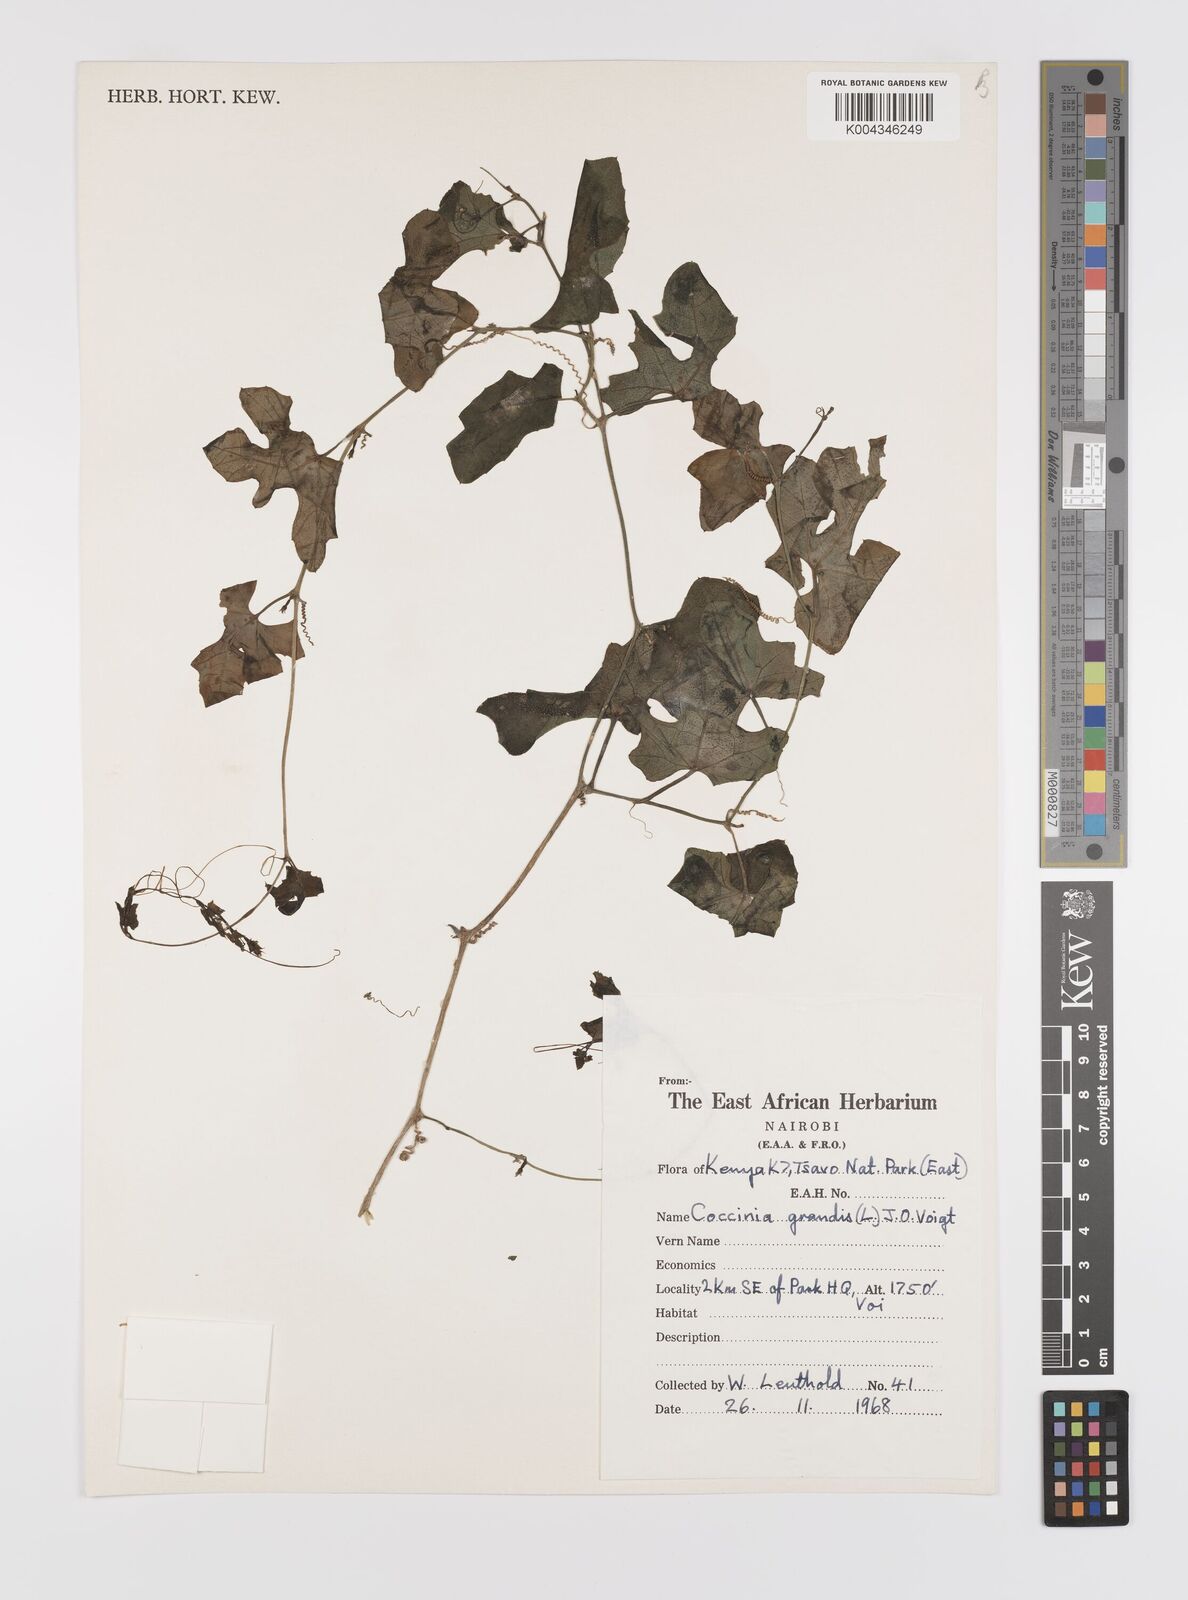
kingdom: Plantae
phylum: Tracheophyta
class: Magnoliopsida
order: Cucurbitales
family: Cucurbitaceae
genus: Coccinia
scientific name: Coccinia grandis
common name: Ivy gourd
